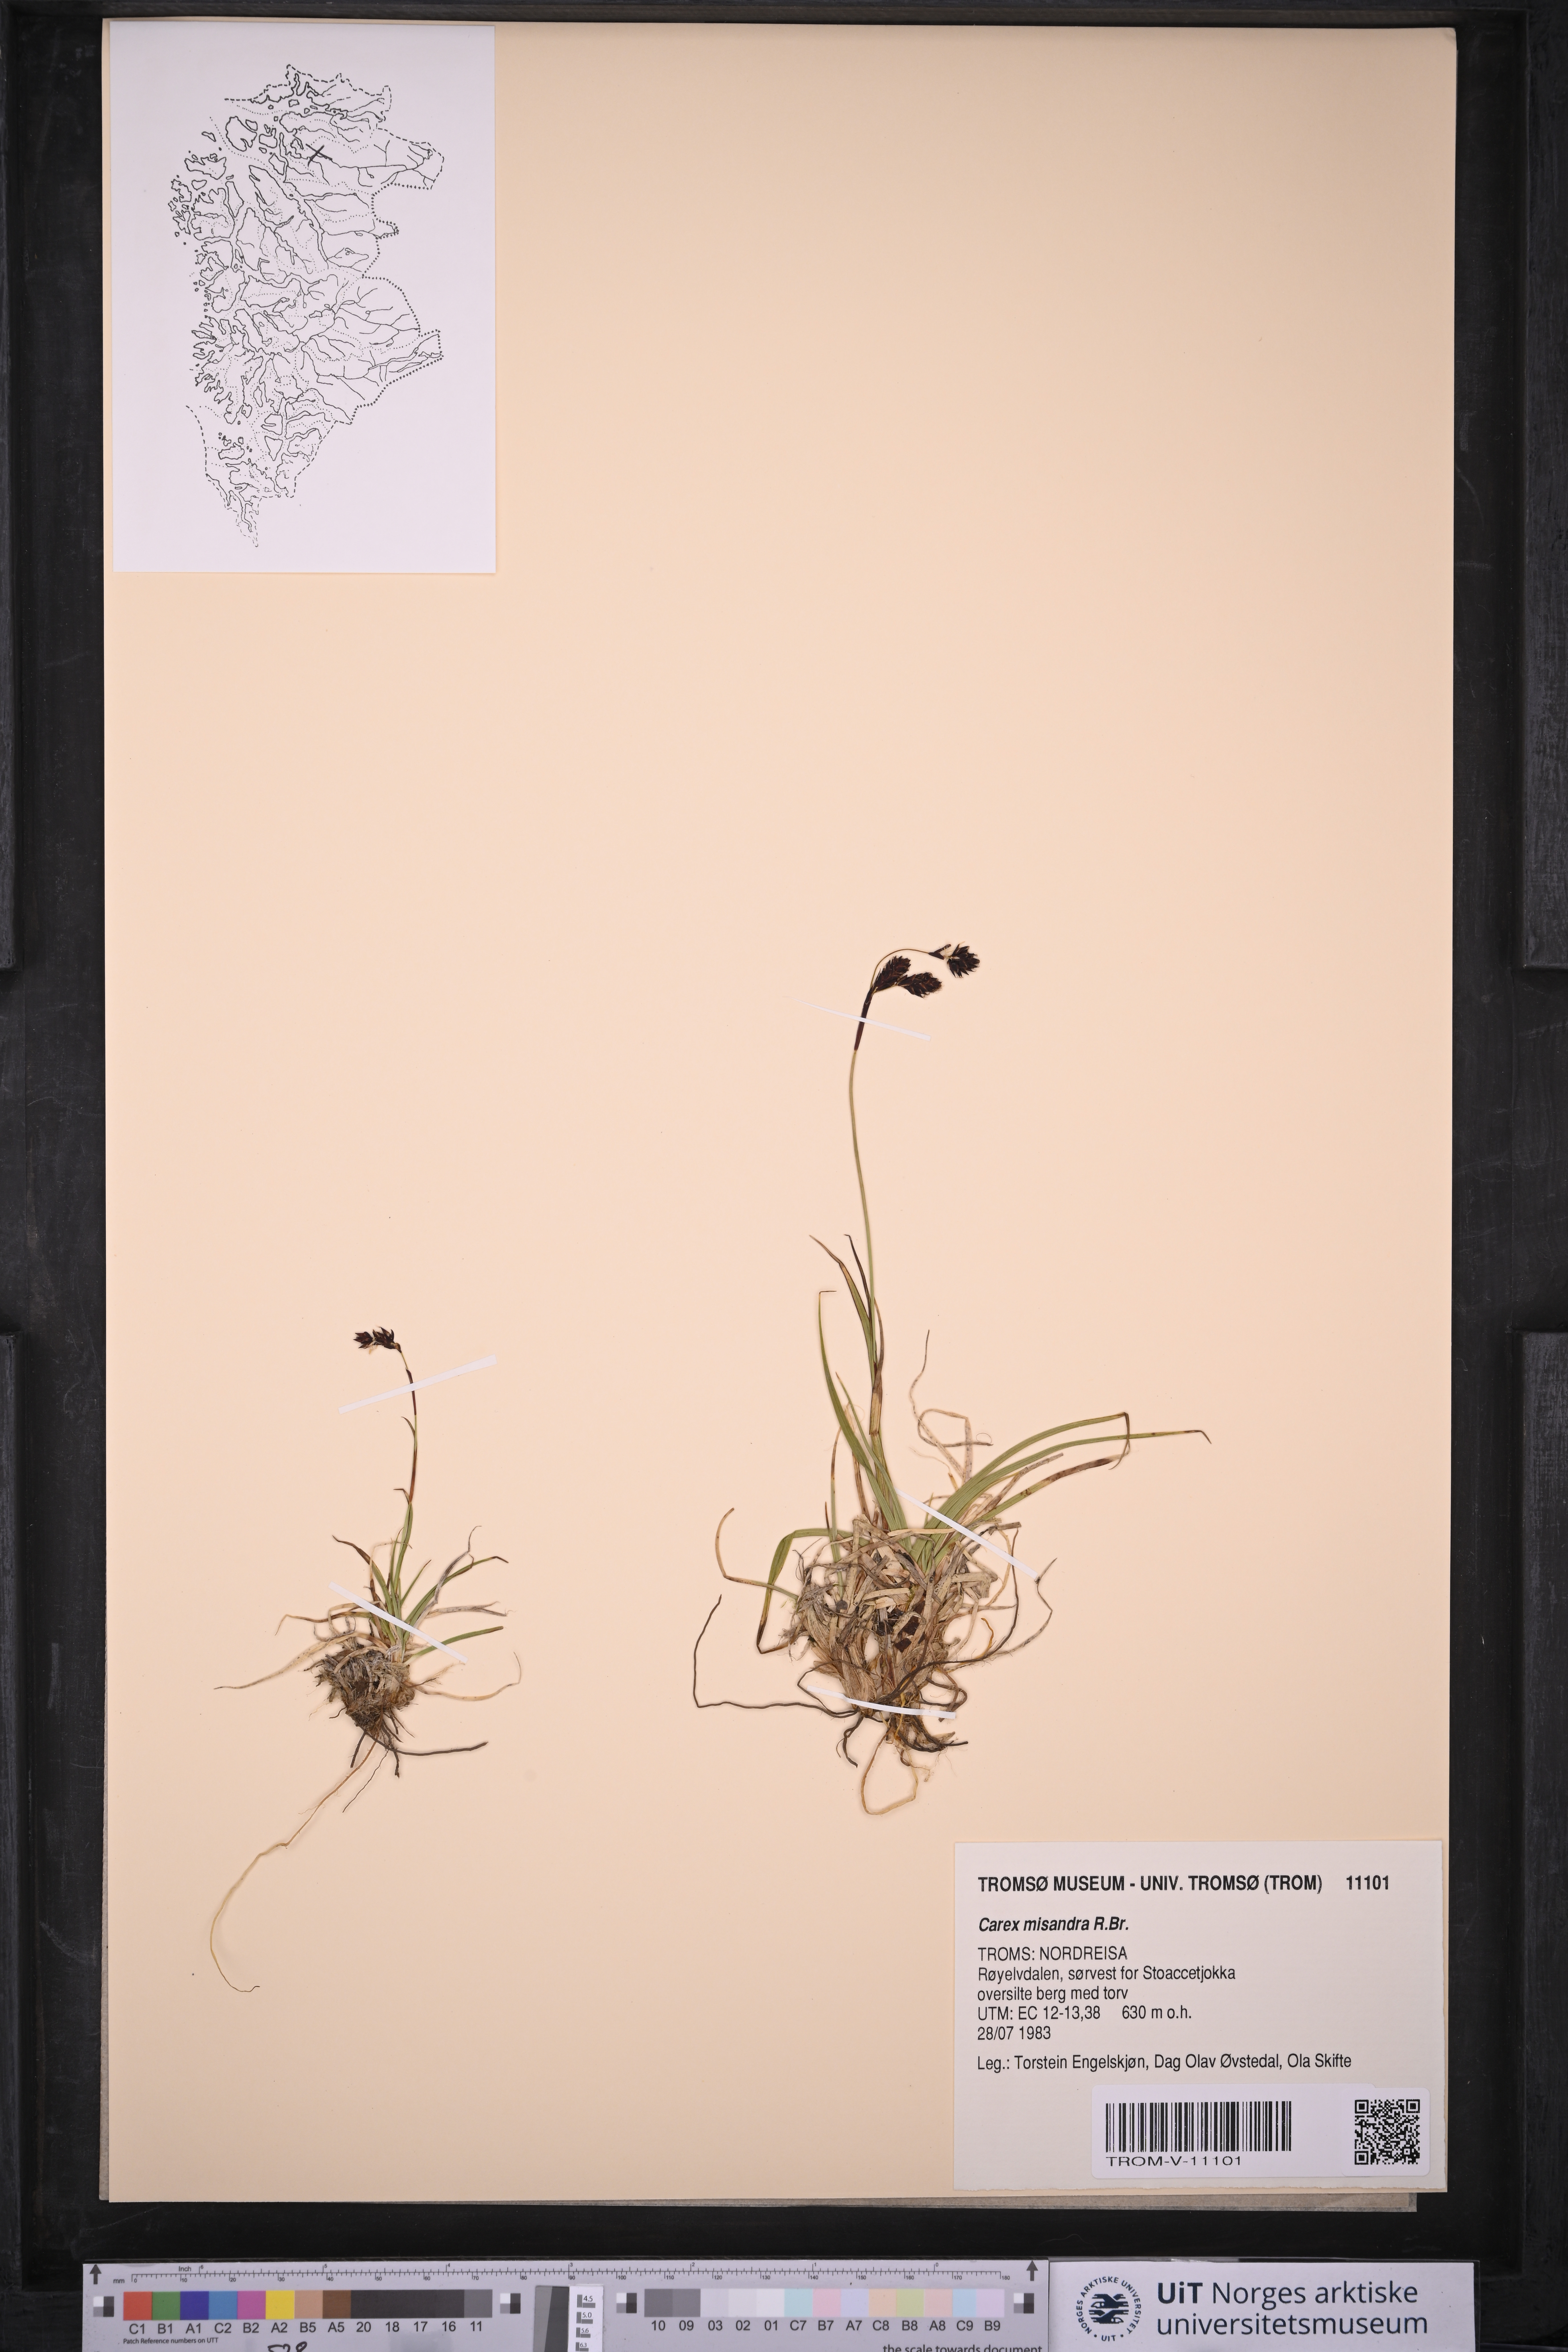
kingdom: Plantae
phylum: Tracheophyta
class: Liliopsida
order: Poales
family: Cyperaceae
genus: Carex
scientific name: Carex fuliginosa
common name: Few-flowered sedge
